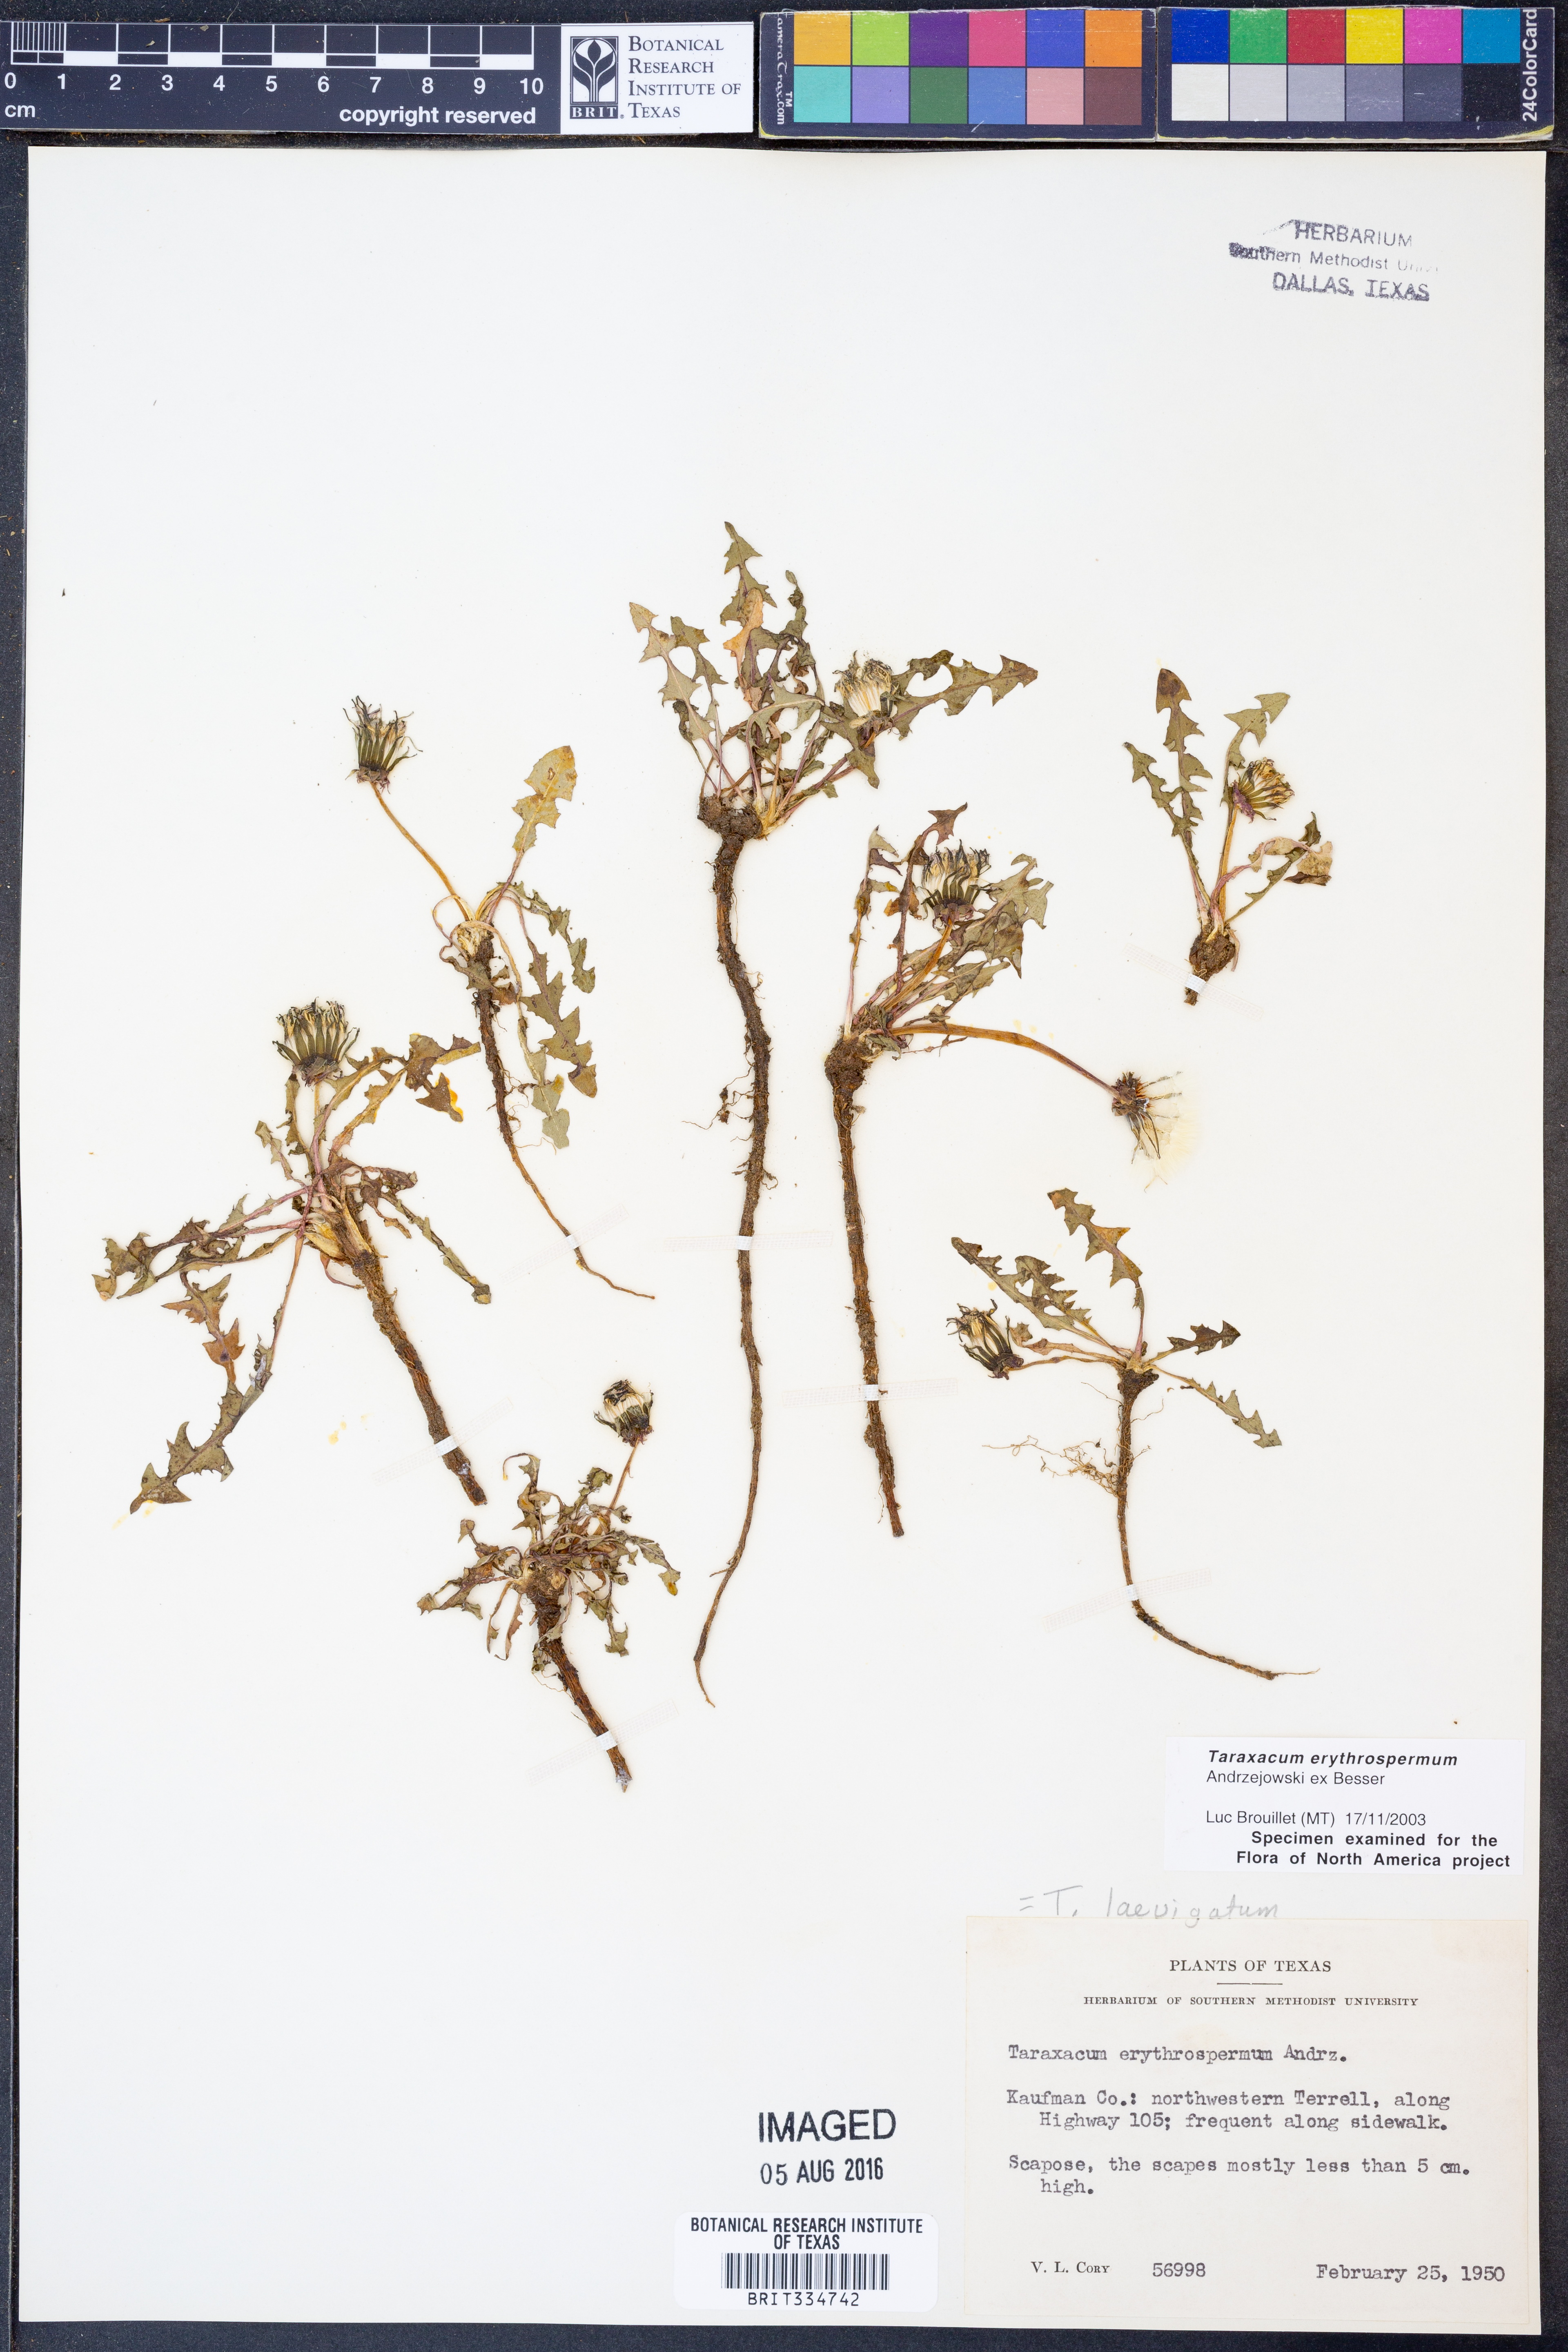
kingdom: Plantae
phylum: Tracheophyta
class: Magnoliopsida
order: Asterales
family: Asteraceae
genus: Taraxacum
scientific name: Taraxacum erythrospermum
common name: Rock dandelion
